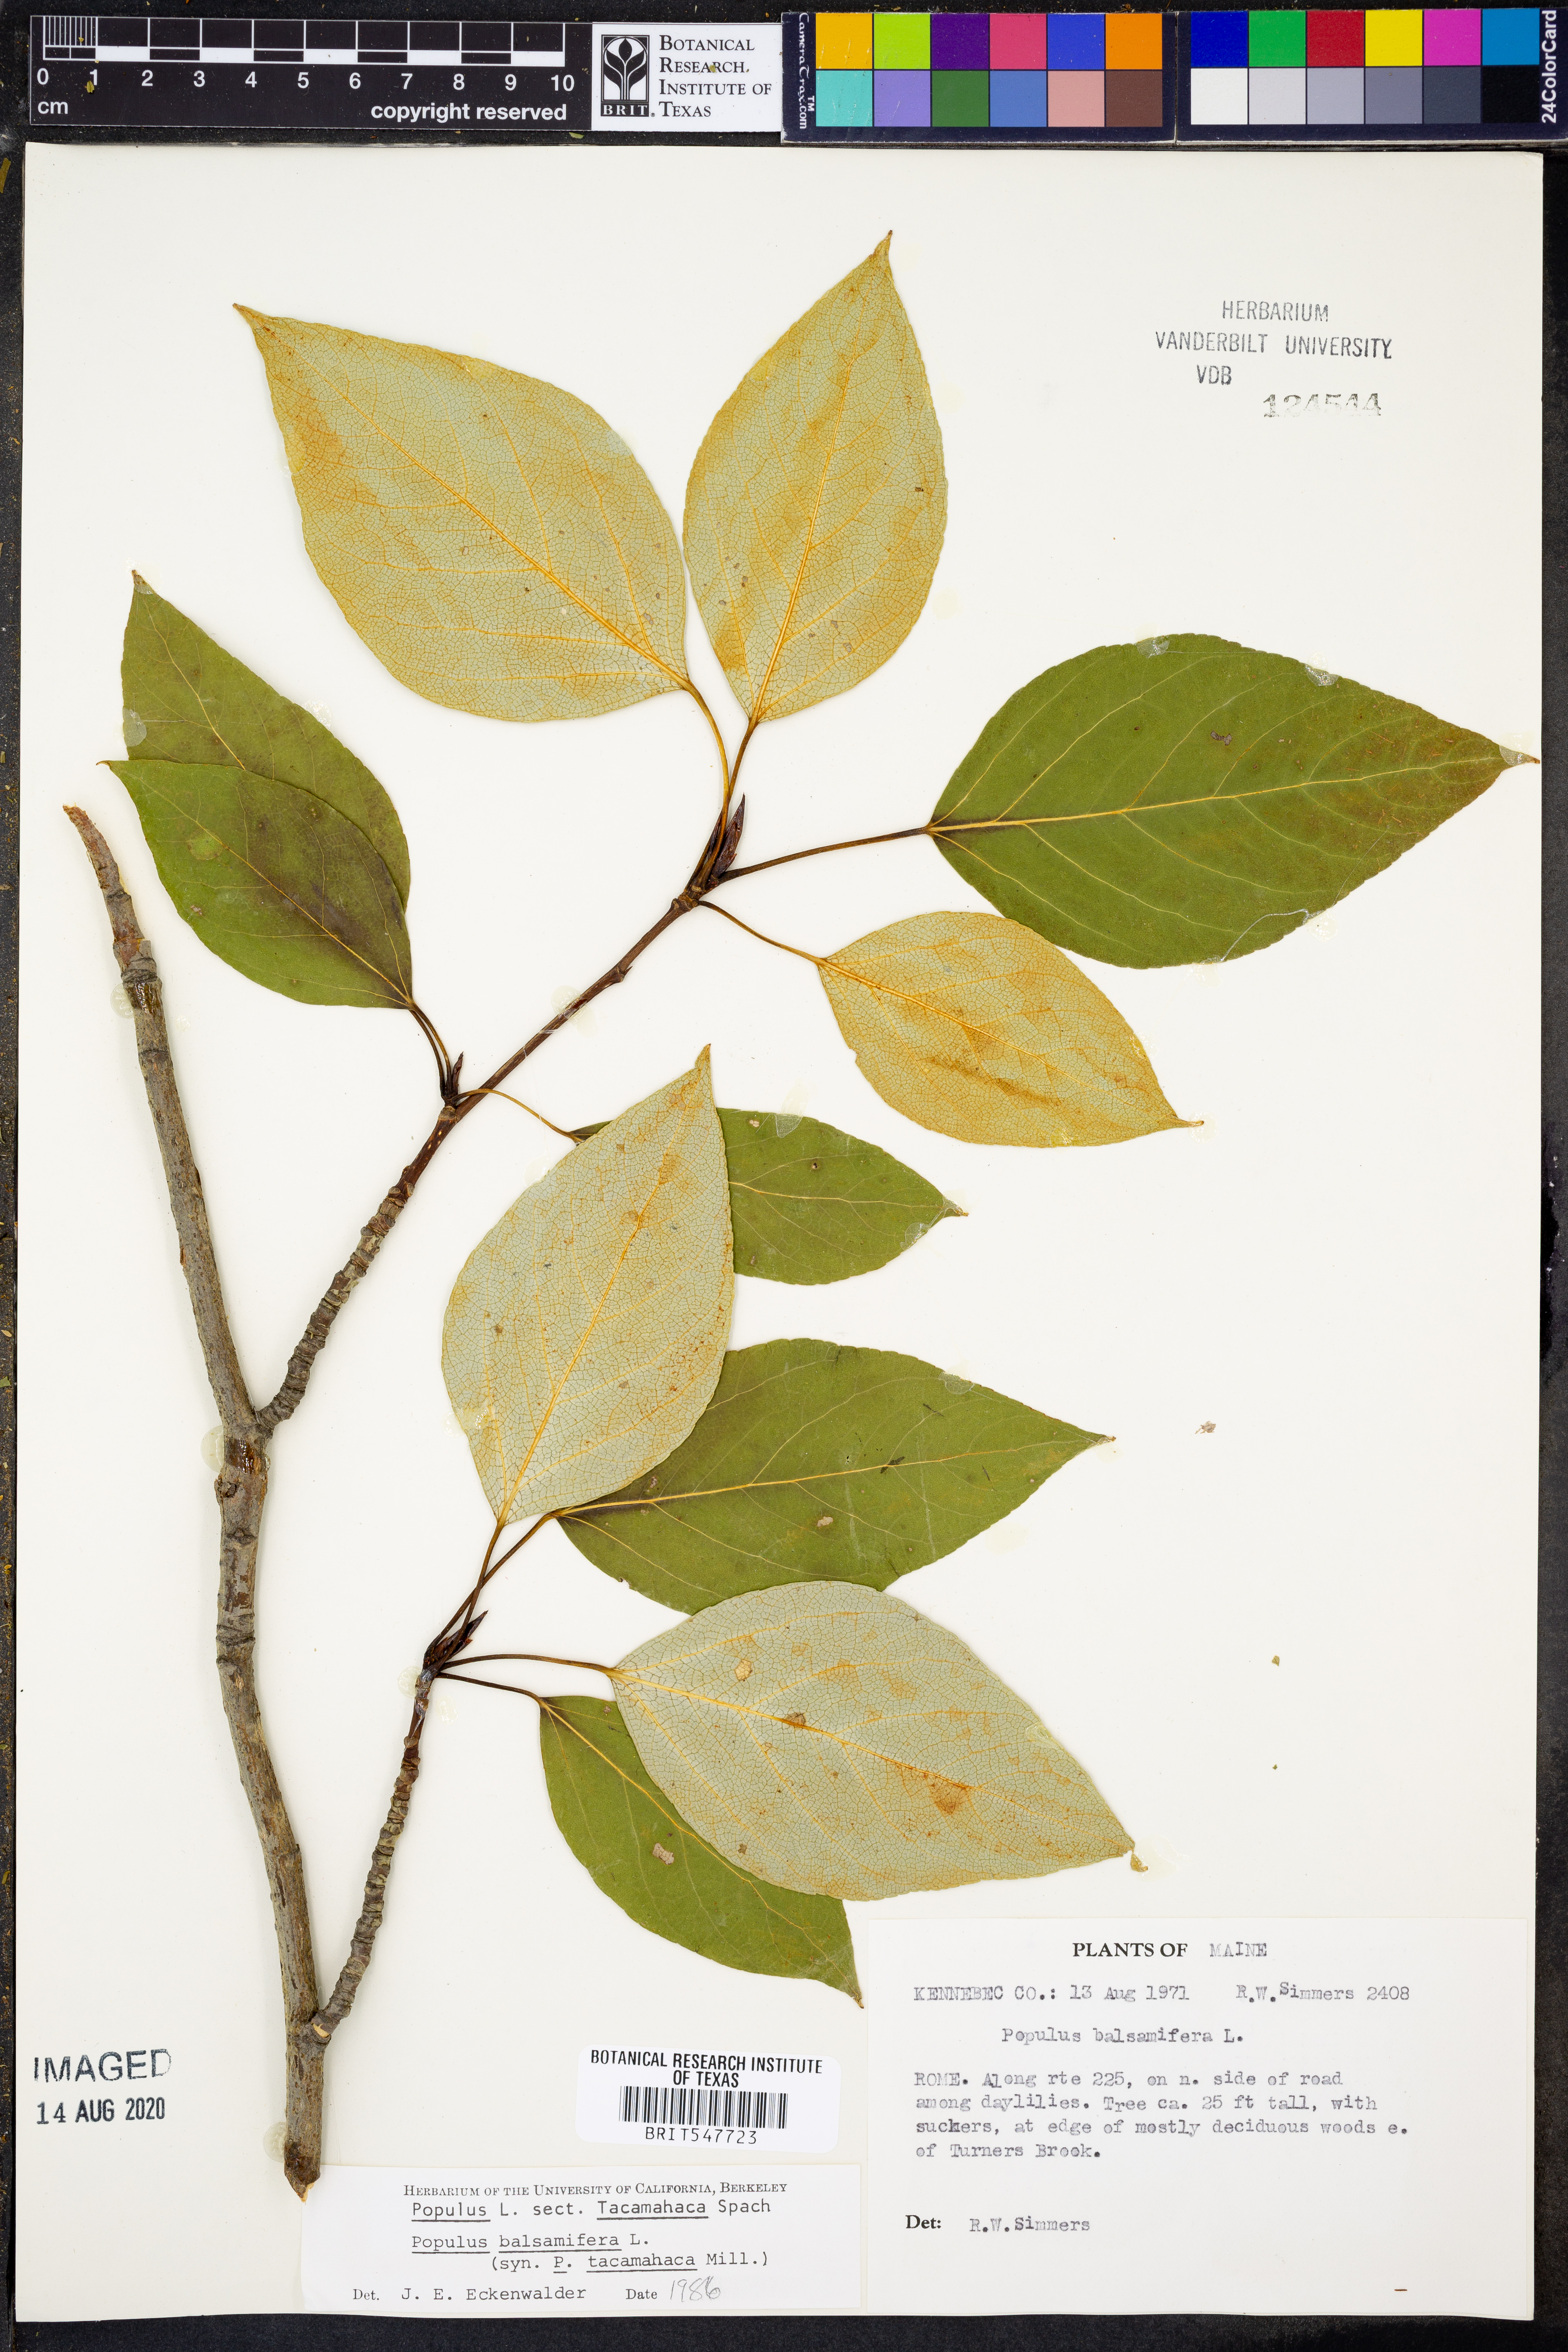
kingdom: Plantae
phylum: Tracheophyta
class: Magnoliopsida
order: Malpighiales
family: Salicaceae
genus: Populus
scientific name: Populus balsamifera
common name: Balsam poplar
